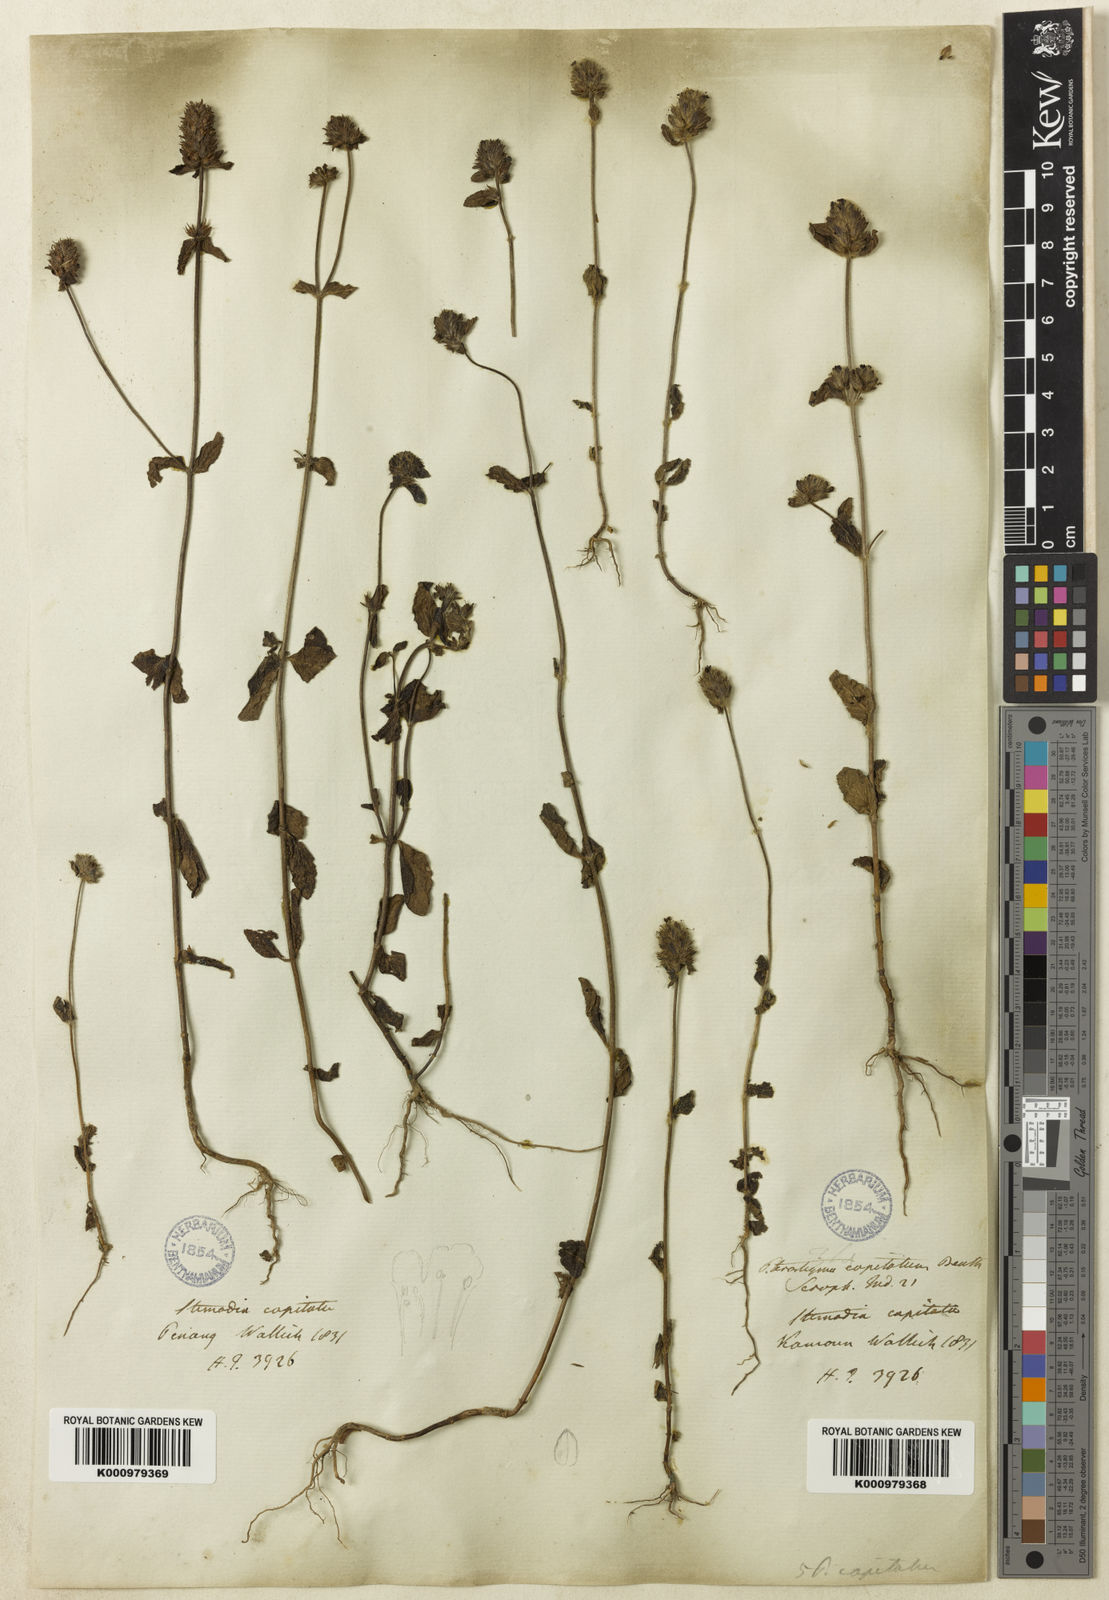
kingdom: Plantae
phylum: Tracheophyta
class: Magnoliopsida
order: Lamiales
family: Plantaginaceae
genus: Adenosma
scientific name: Adenosma indiana
